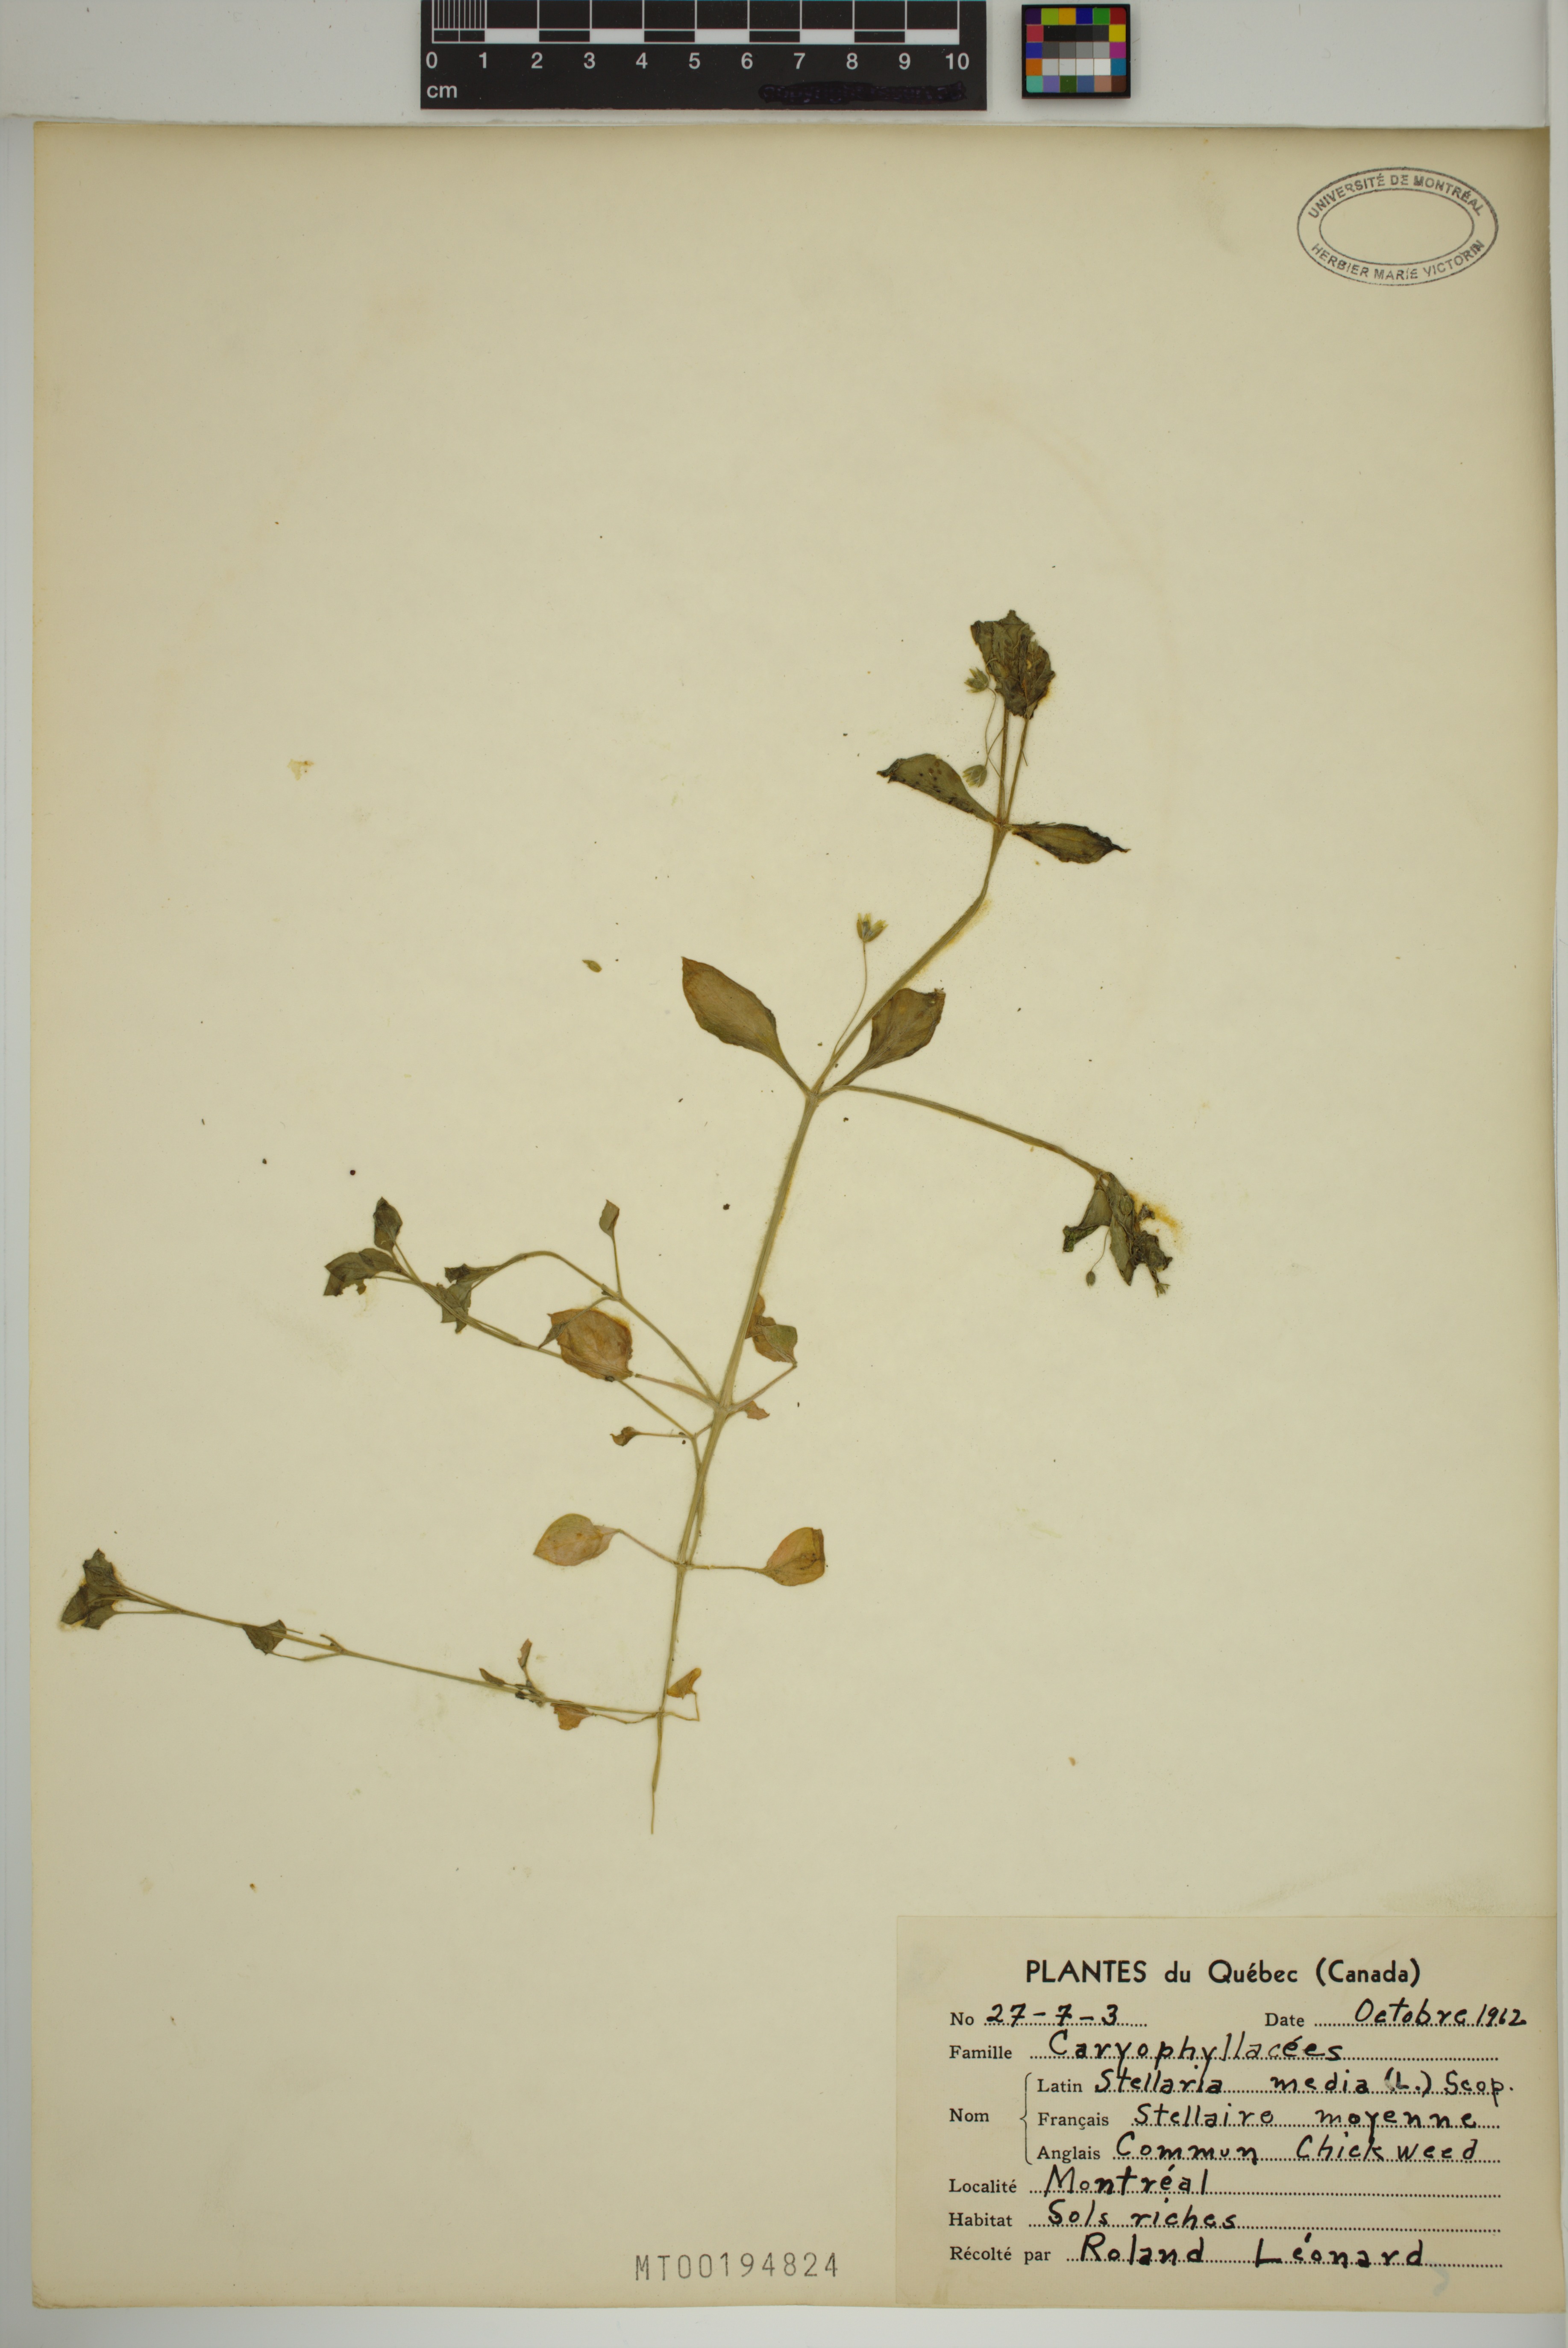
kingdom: Plantae
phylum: Tracheophyta
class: Magnoliopsida
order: Caryophyllales
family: Caryophyllaceae
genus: Stellaria
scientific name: Stellaria media
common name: Common chickweed
